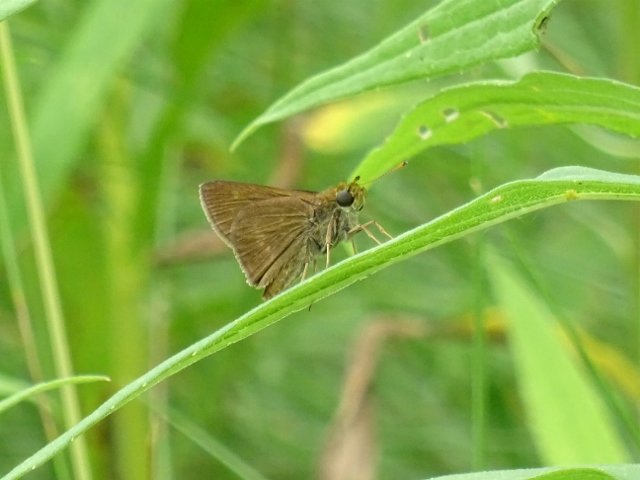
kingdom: Animalia
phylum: Arthropoda
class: Insecta
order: Lepidoptera
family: Hesperiidae
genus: Polites
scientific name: Polites themistocles
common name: Tawny-edged Skipper
